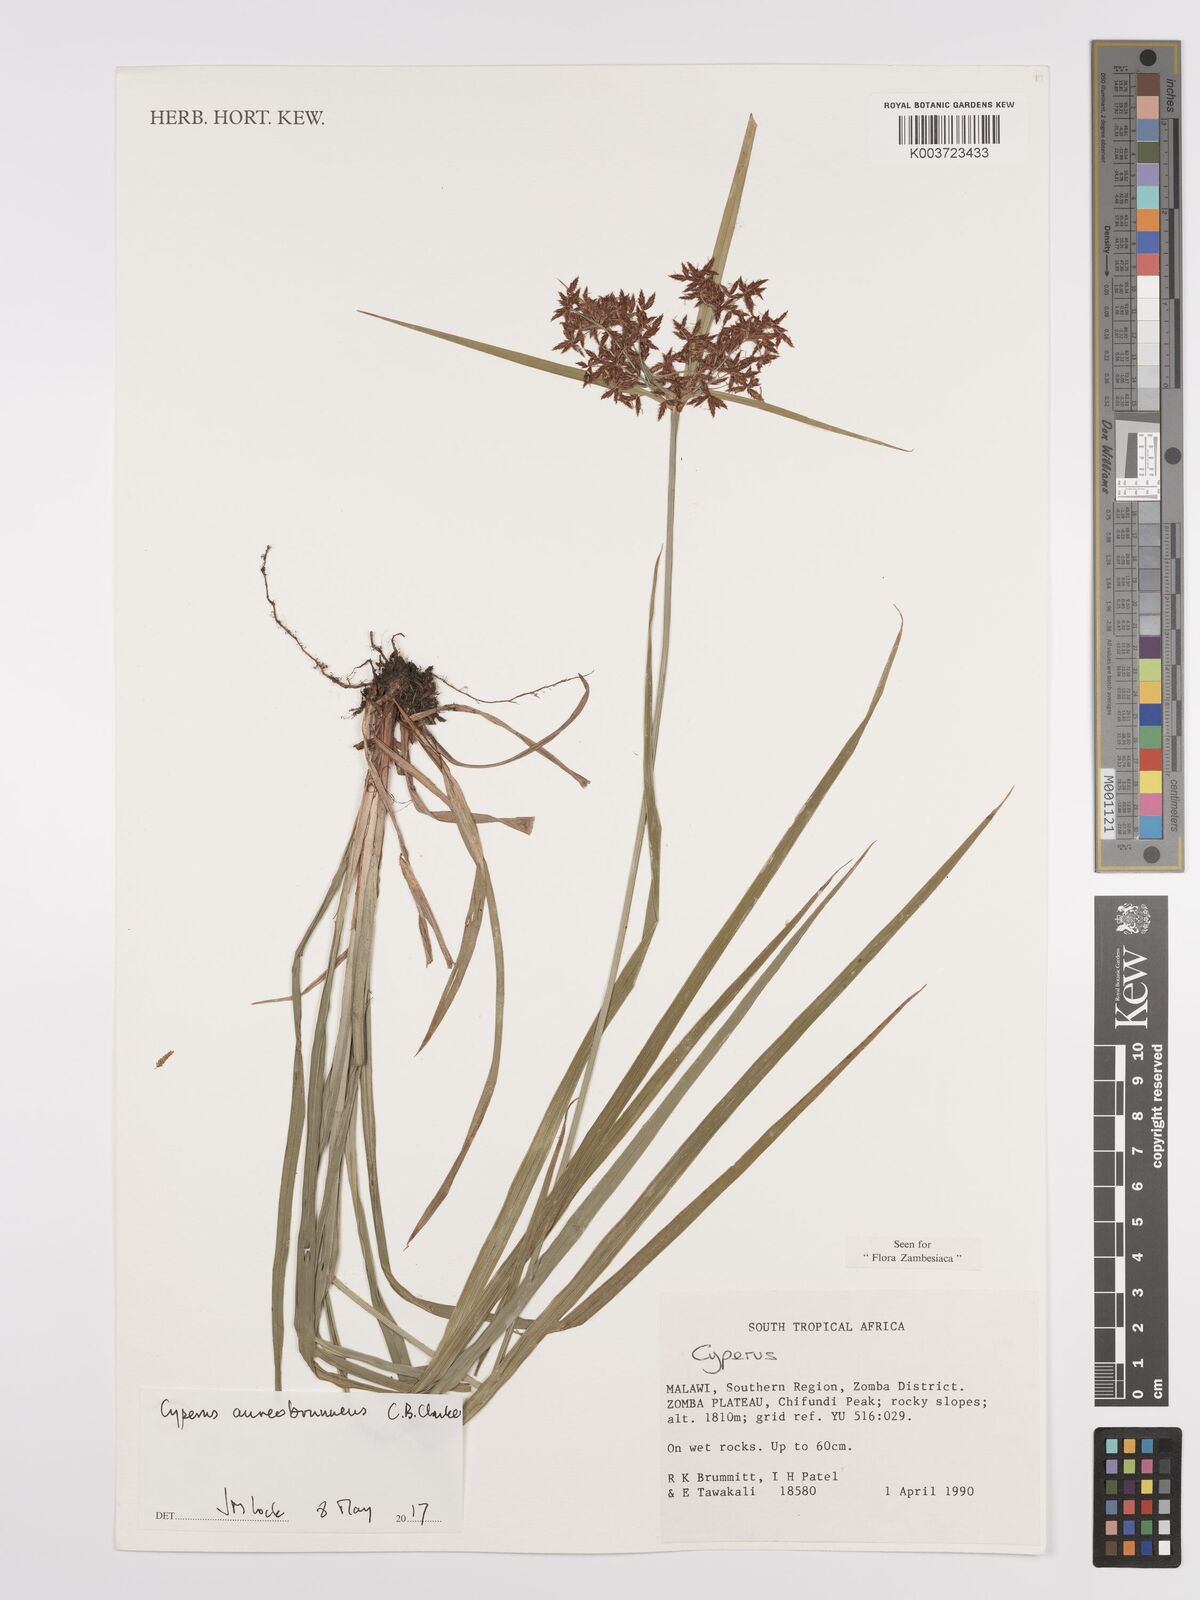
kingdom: Plantae
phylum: Tracheophyta
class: Liliopsida
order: Poales
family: Cyperaceae
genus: Cyperus
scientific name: Cyperus aureobrunneus
